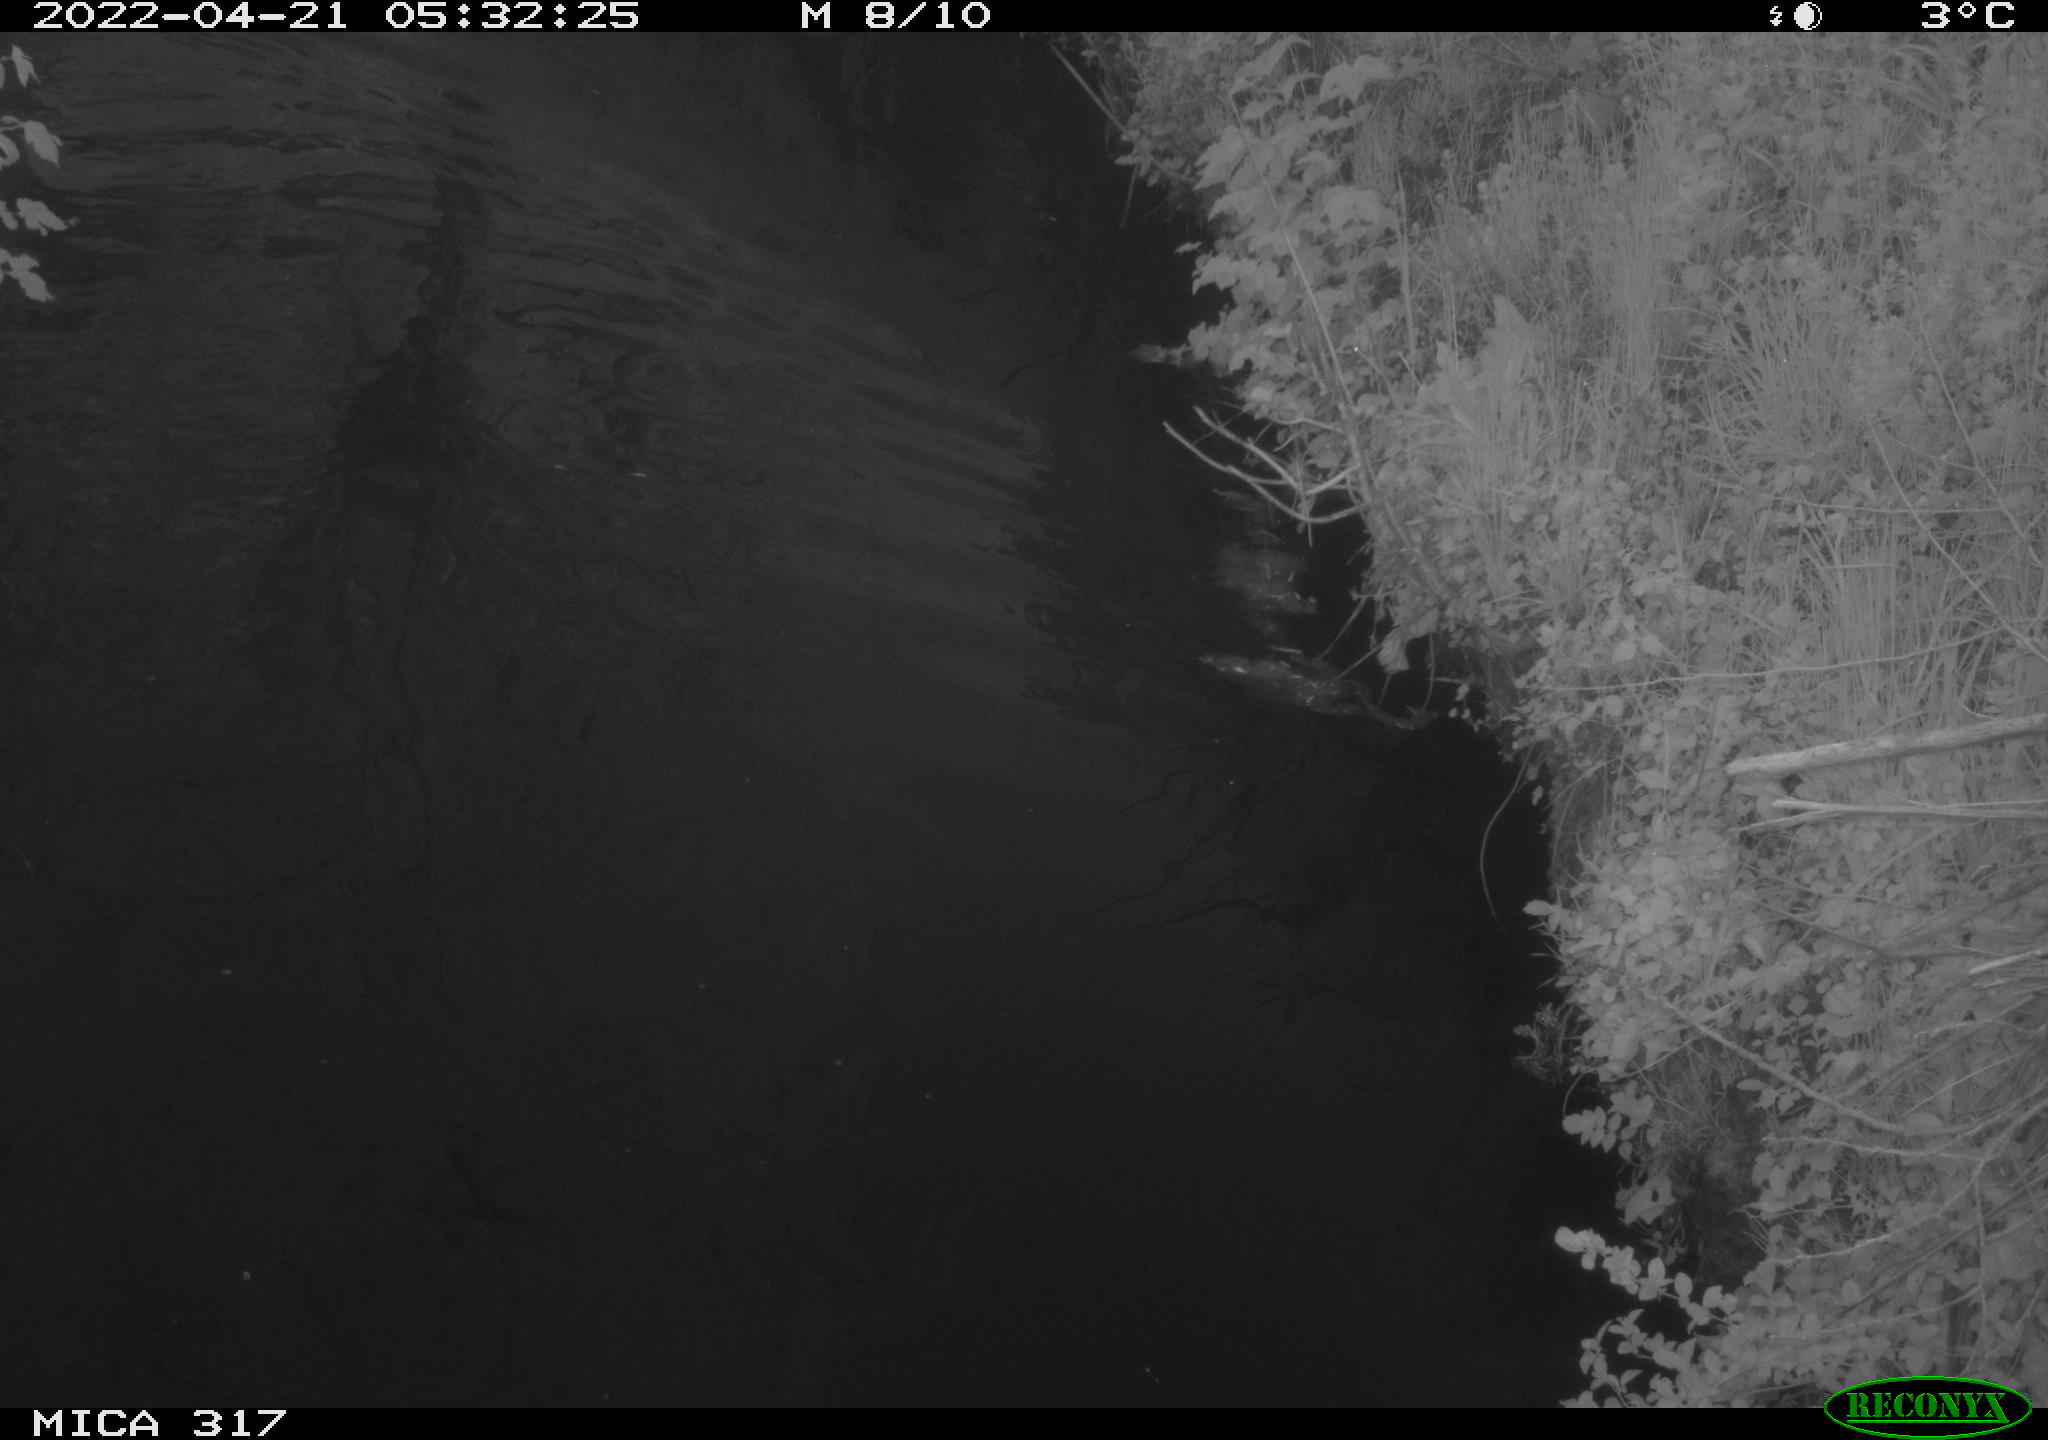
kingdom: Animalia
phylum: Chordata
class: Aves
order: Gruiformes
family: Rallidae
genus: Fulica
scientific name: Fulica atra
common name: Eurasian coot
